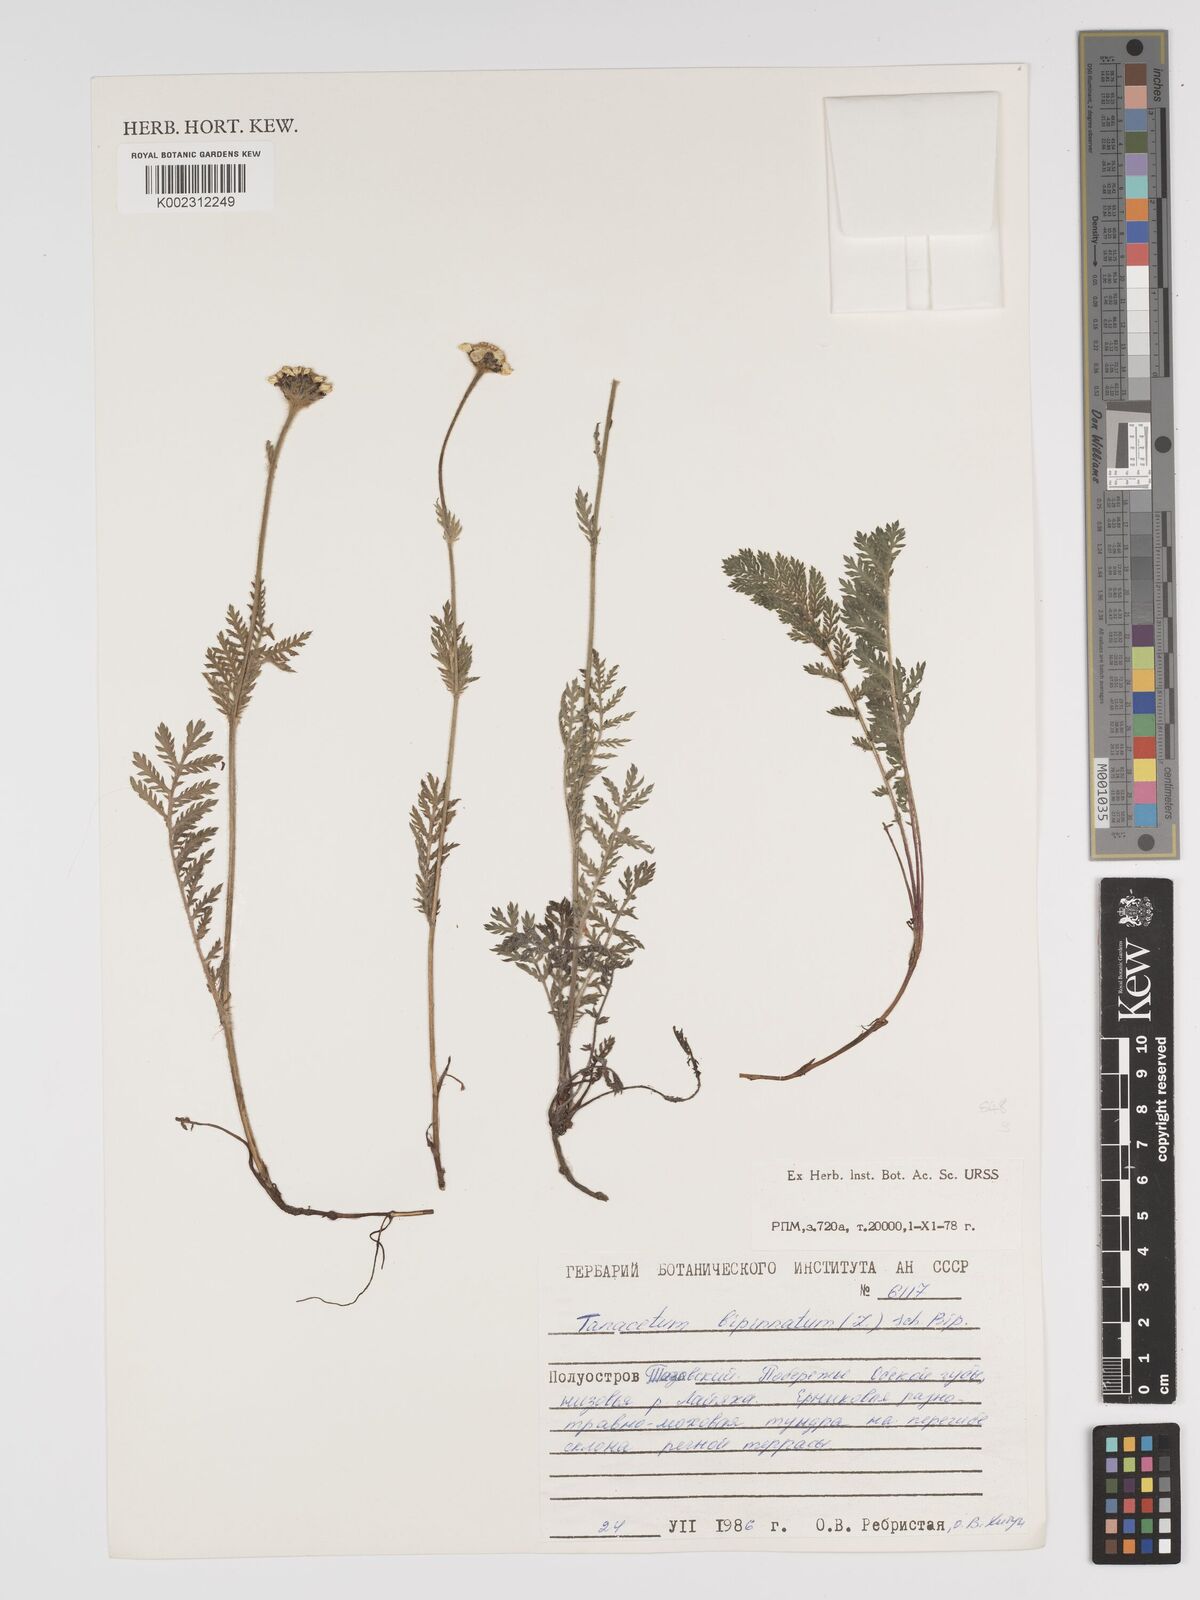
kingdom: Plantae
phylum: Tracheophyta
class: Magnoliopsida
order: Asterales
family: Asteraceae
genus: Tanacetum
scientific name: Tanacetum bipinnatum
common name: Dwarf tansy
